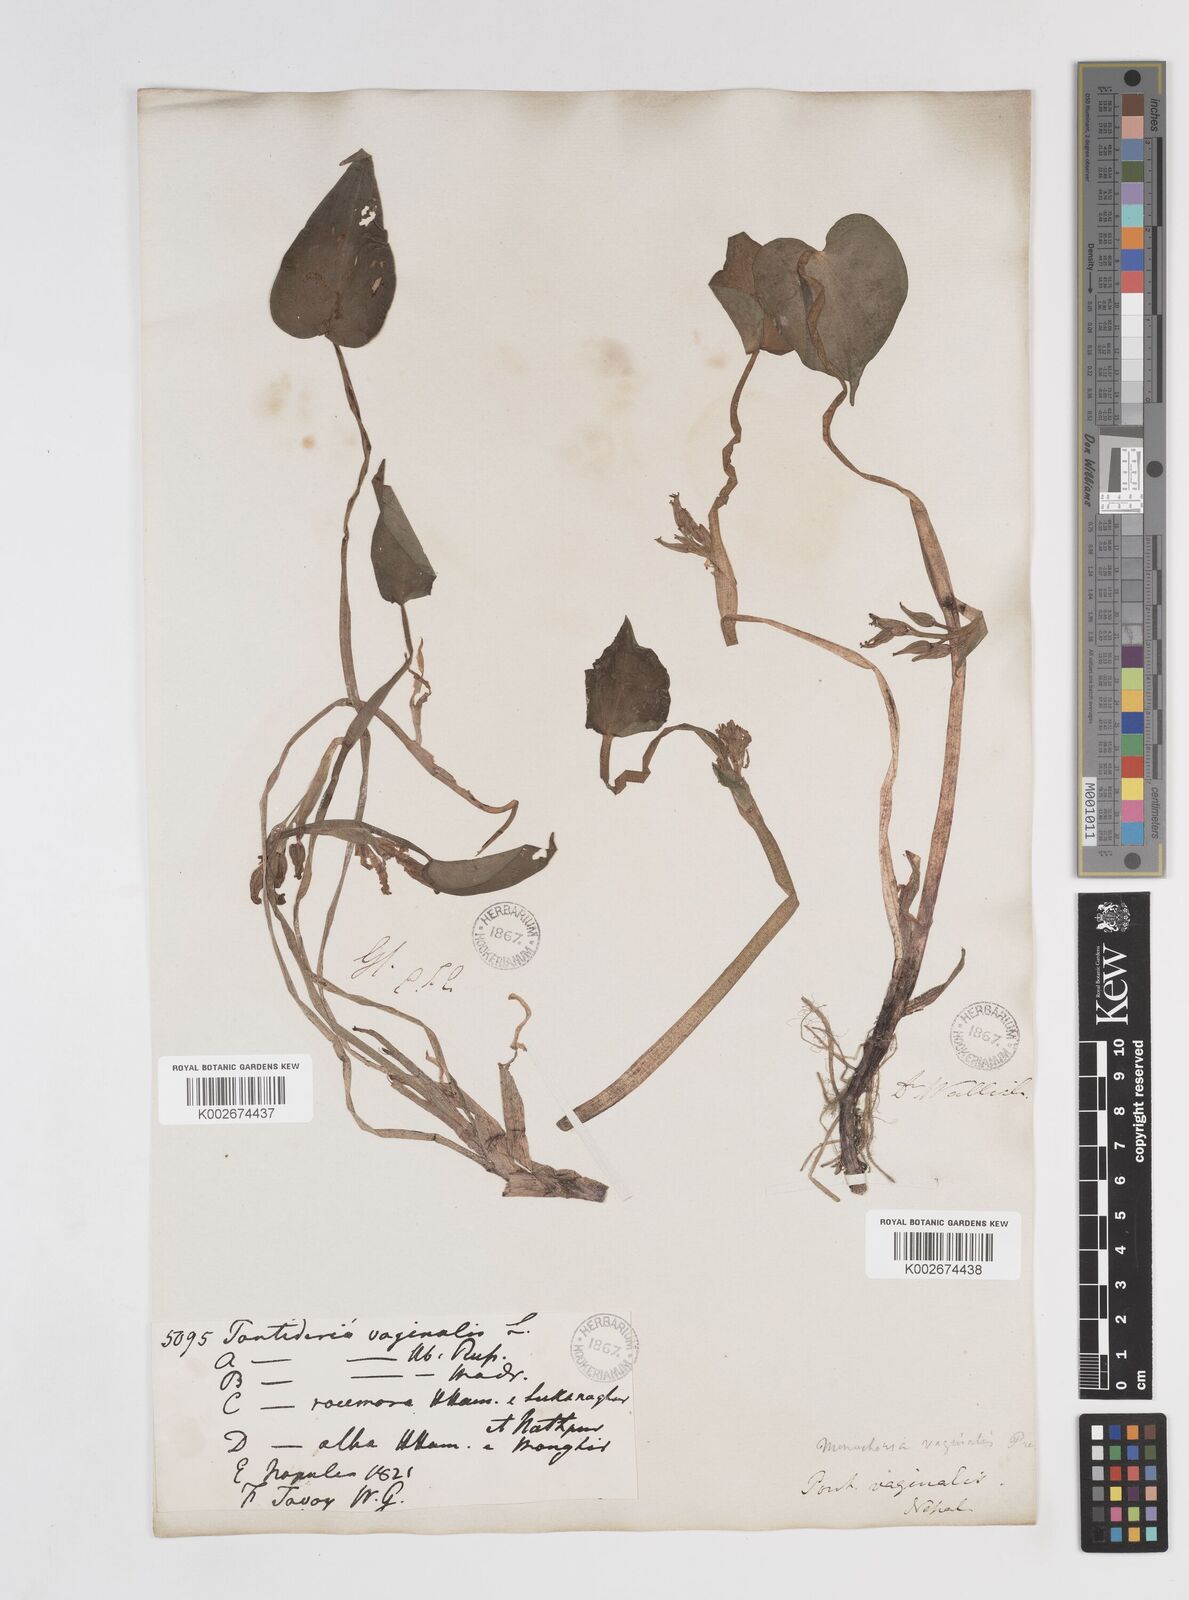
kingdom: Plantae
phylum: Tracheophyta
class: Liliopsida
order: Commelinales
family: Pontederiaceae
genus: Pontederia
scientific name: Pontederia vaginalis
